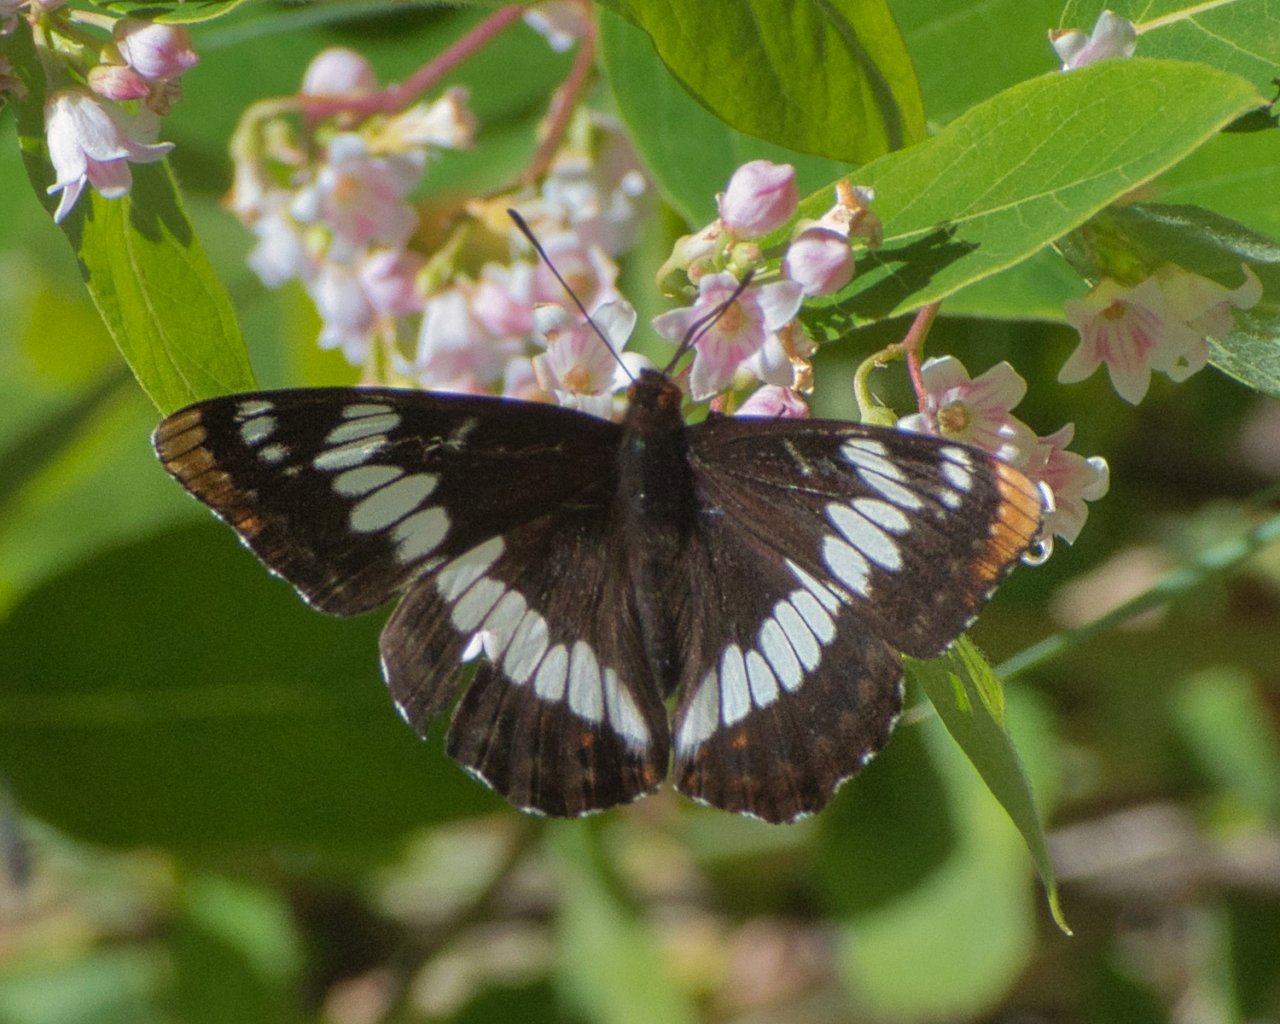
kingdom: Animalia
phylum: Arthropoda
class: Insecta
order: Lepidoptera
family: Nymphalidae
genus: Limenitis
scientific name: Limenitis lorquini
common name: Lorquin's Admiral
